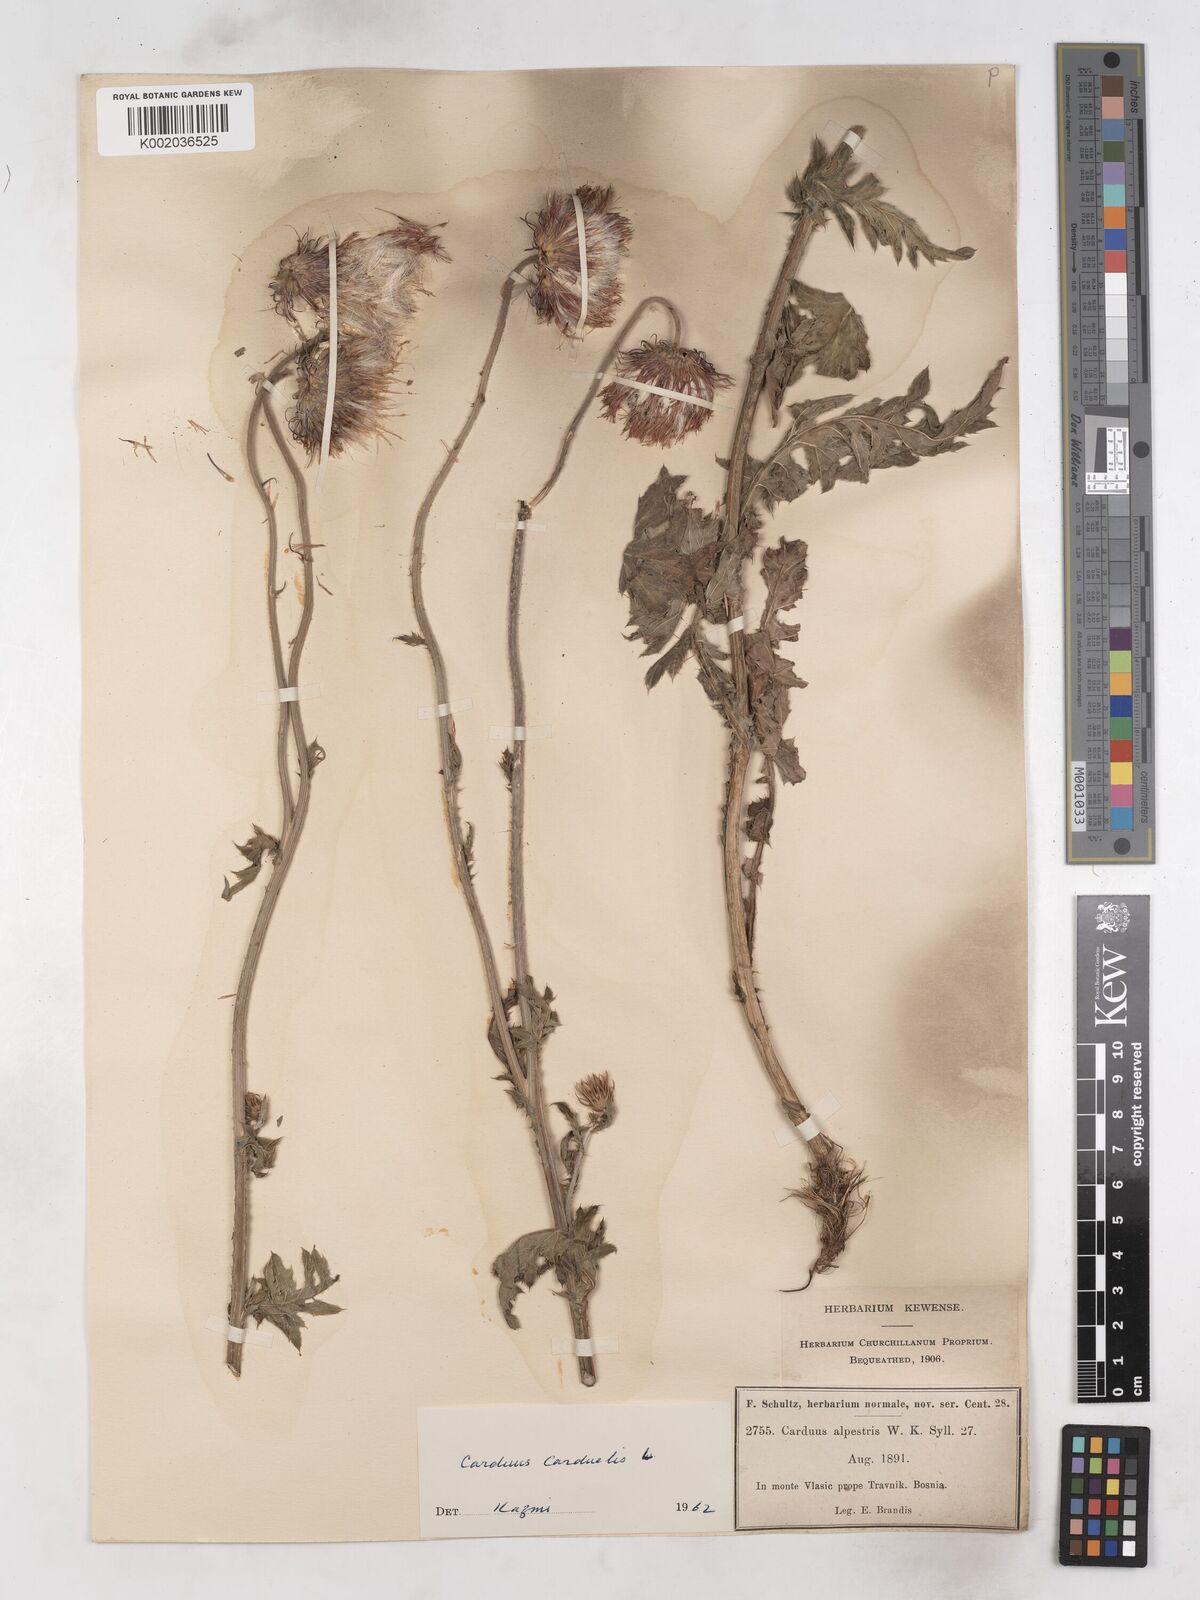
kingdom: Plantae
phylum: Tracheophyta
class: Magnoliopsida
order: Asterales
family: Asteraceae
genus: Carduus
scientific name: Carduus carduelis
